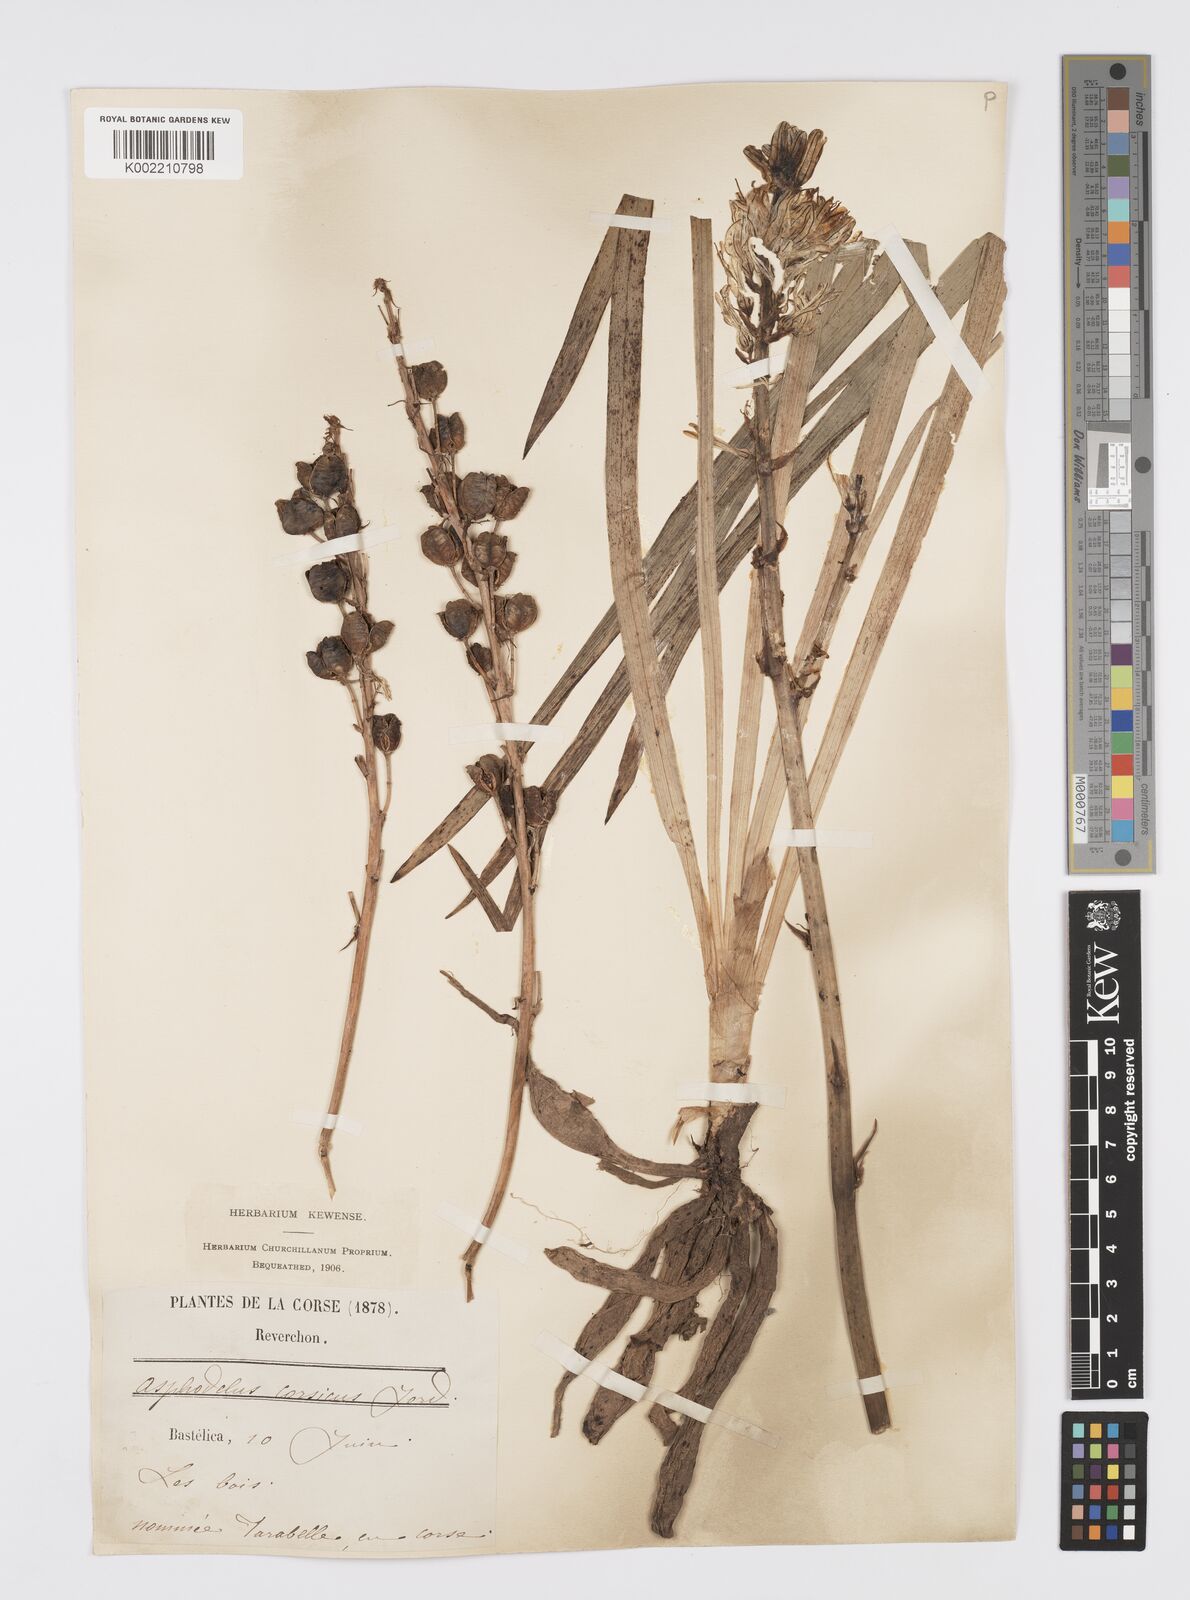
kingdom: Plantae
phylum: Tracheophyta
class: Liliopsida
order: Asparagales
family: Asphodelaceae
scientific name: Asphodelaceae
